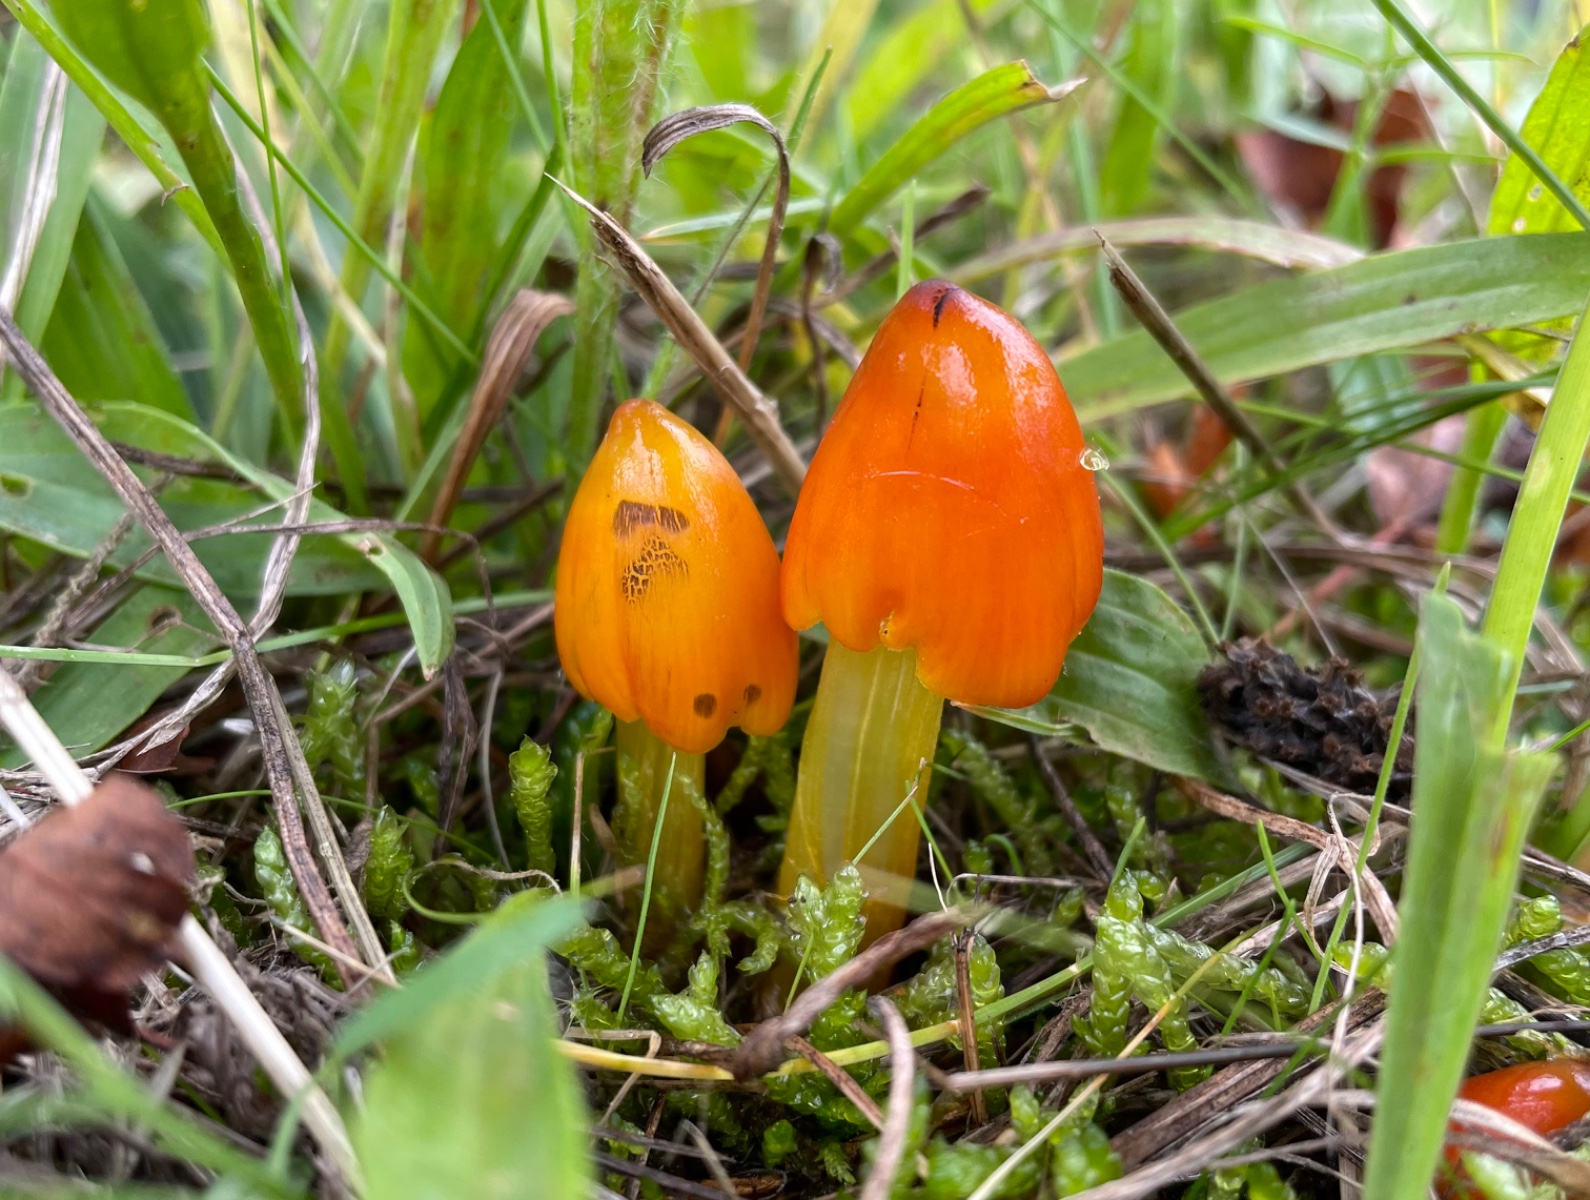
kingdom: Fungi
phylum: Basidiomycota
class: Agaricomycetes
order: Agaricales
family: Hygrophoraceae
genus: Hygrocybe
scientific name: Hygrocybe conica
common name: kegle-vokshat
